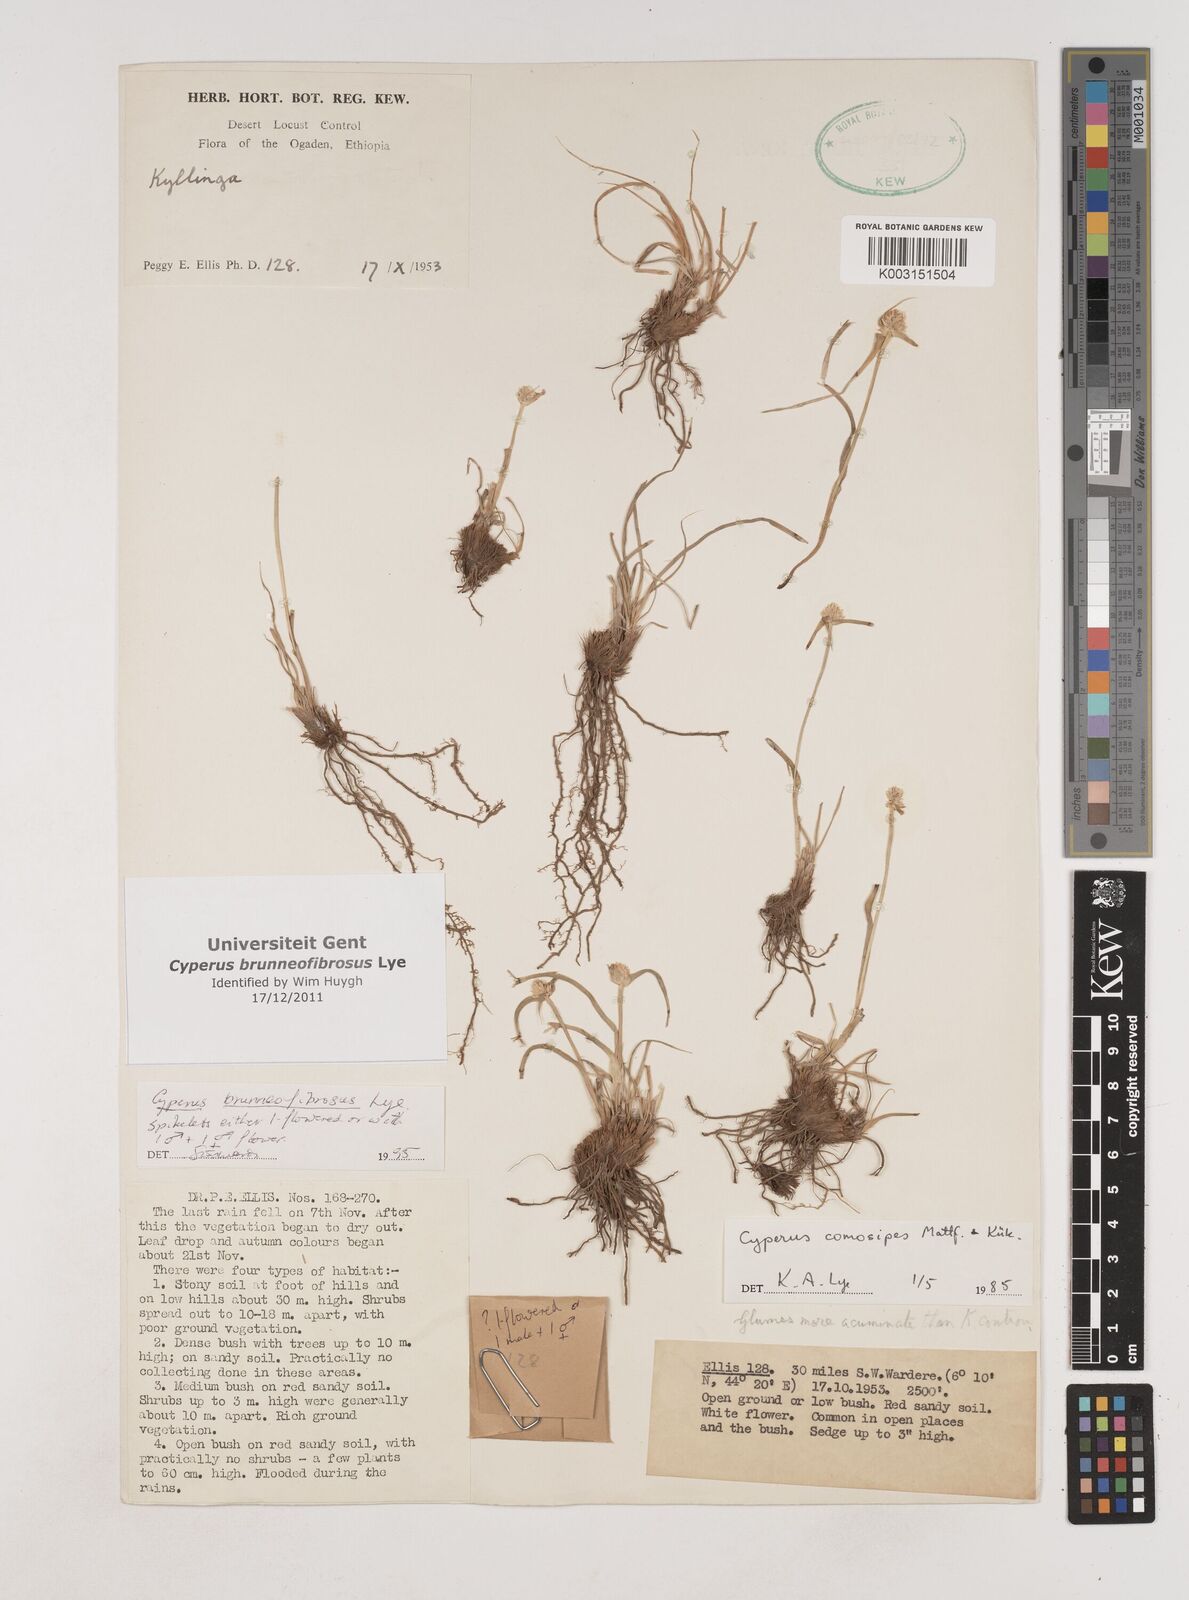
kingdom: Plantae
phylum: Tracheophyta
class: Liliopsida
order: Poales
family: Cyperaceae
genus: Cyperus
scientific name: Cyperus brunneofibrosus
